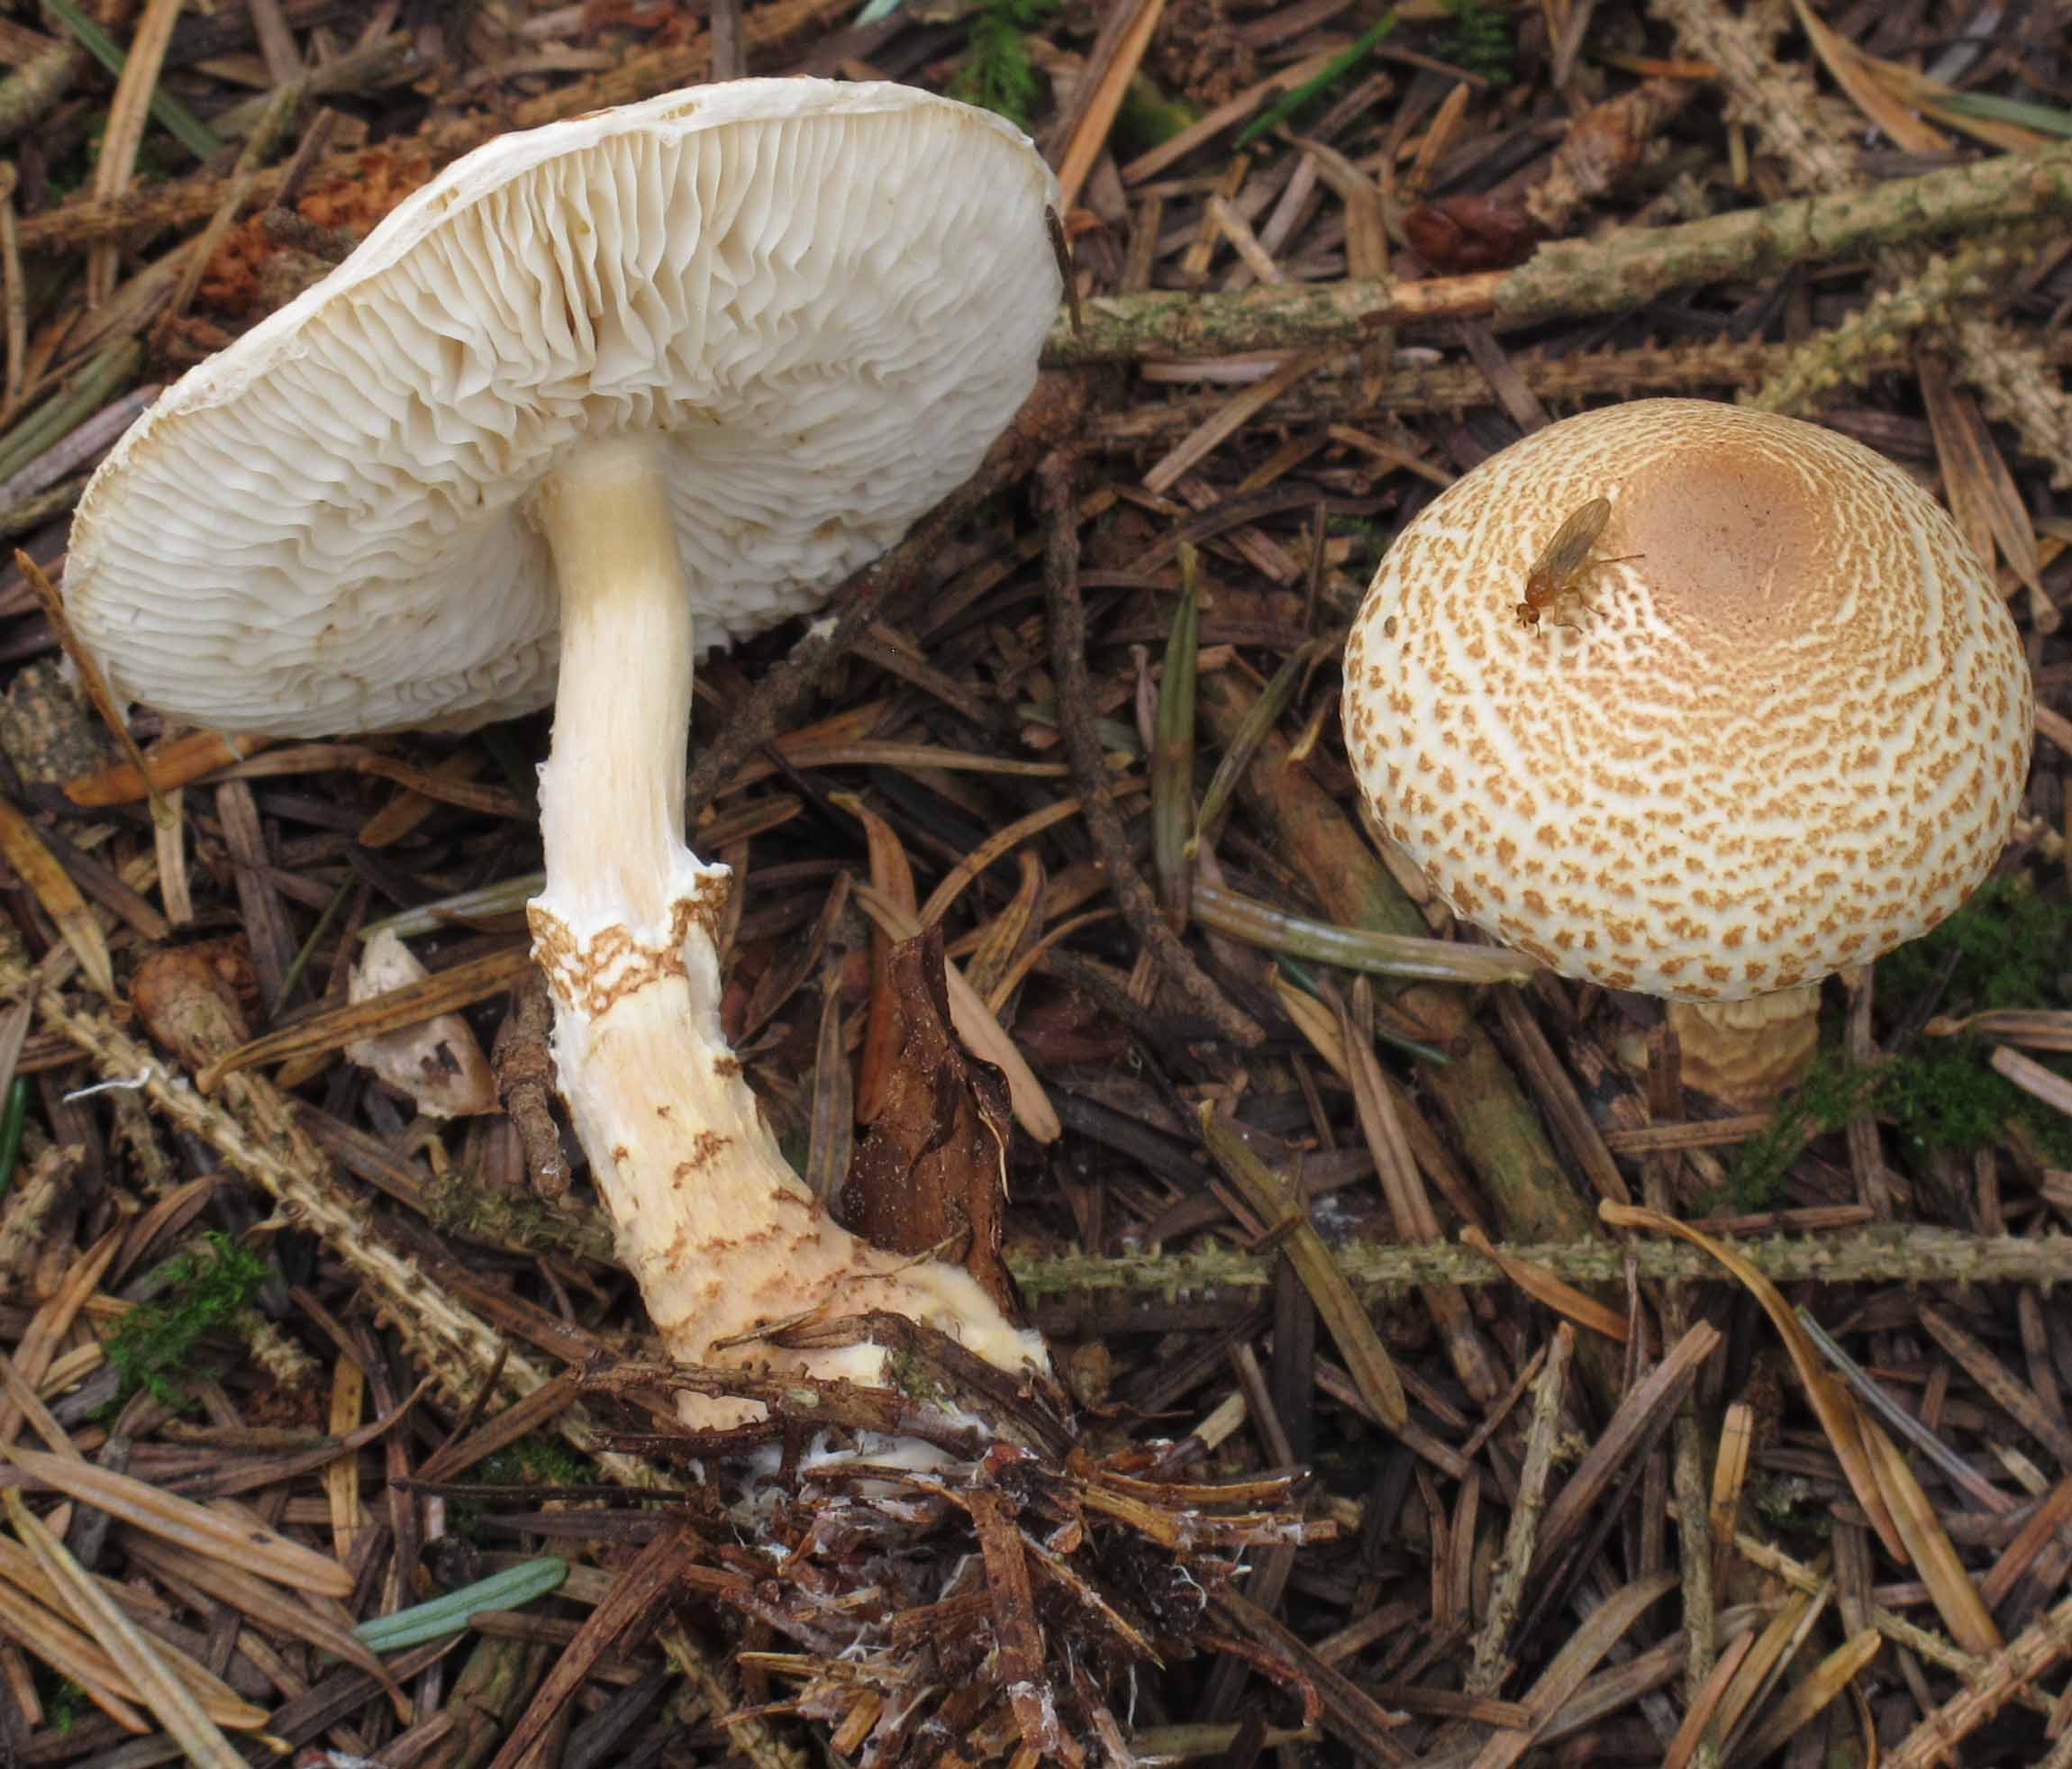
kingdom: Fungi
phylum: Basidiomycota
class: Agaricomycetes
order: Agaricales
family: Agaricaceae
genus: Lepiota
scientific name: Lepiota magnispora
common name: gulfnugget parasolhat
